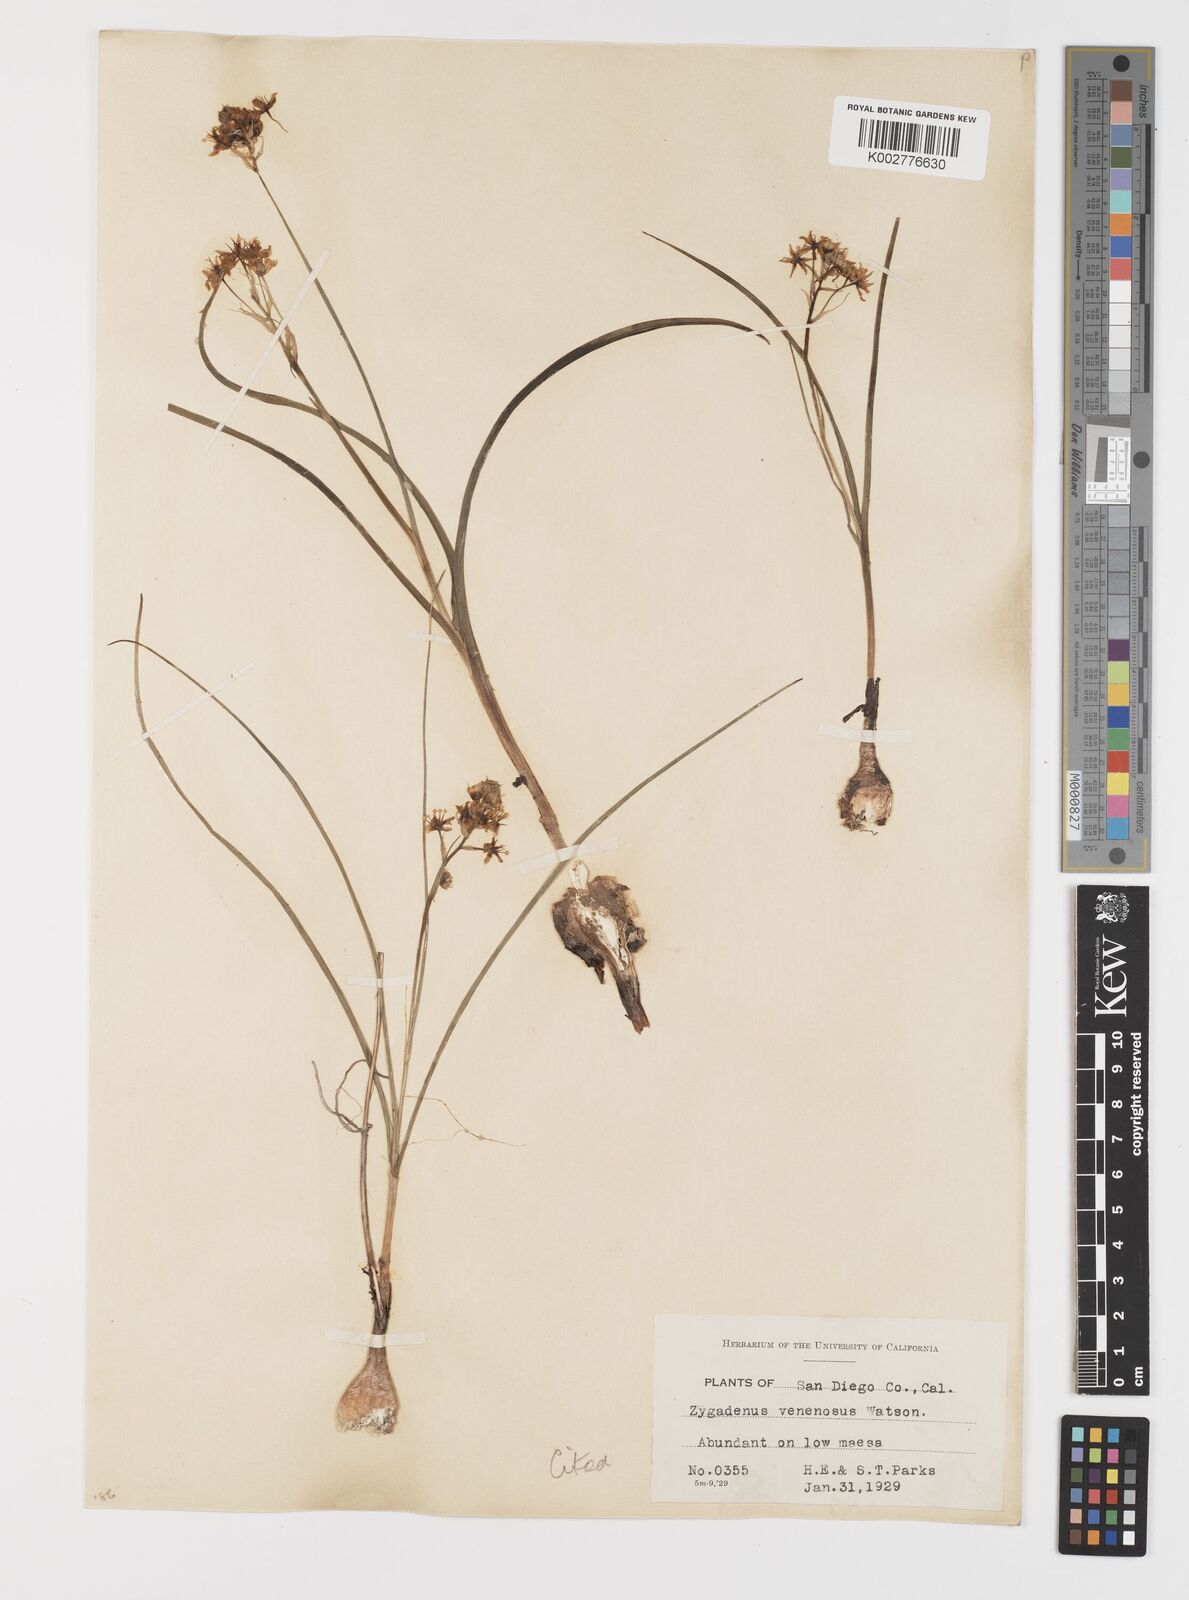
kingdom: Plantae
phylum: Tracheophyta
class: Liliopsida
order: Liliales
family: Melanthiaceae
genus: Toxicoscordion
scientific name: Toxicoscordion venenosum
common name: Meadow death camas
